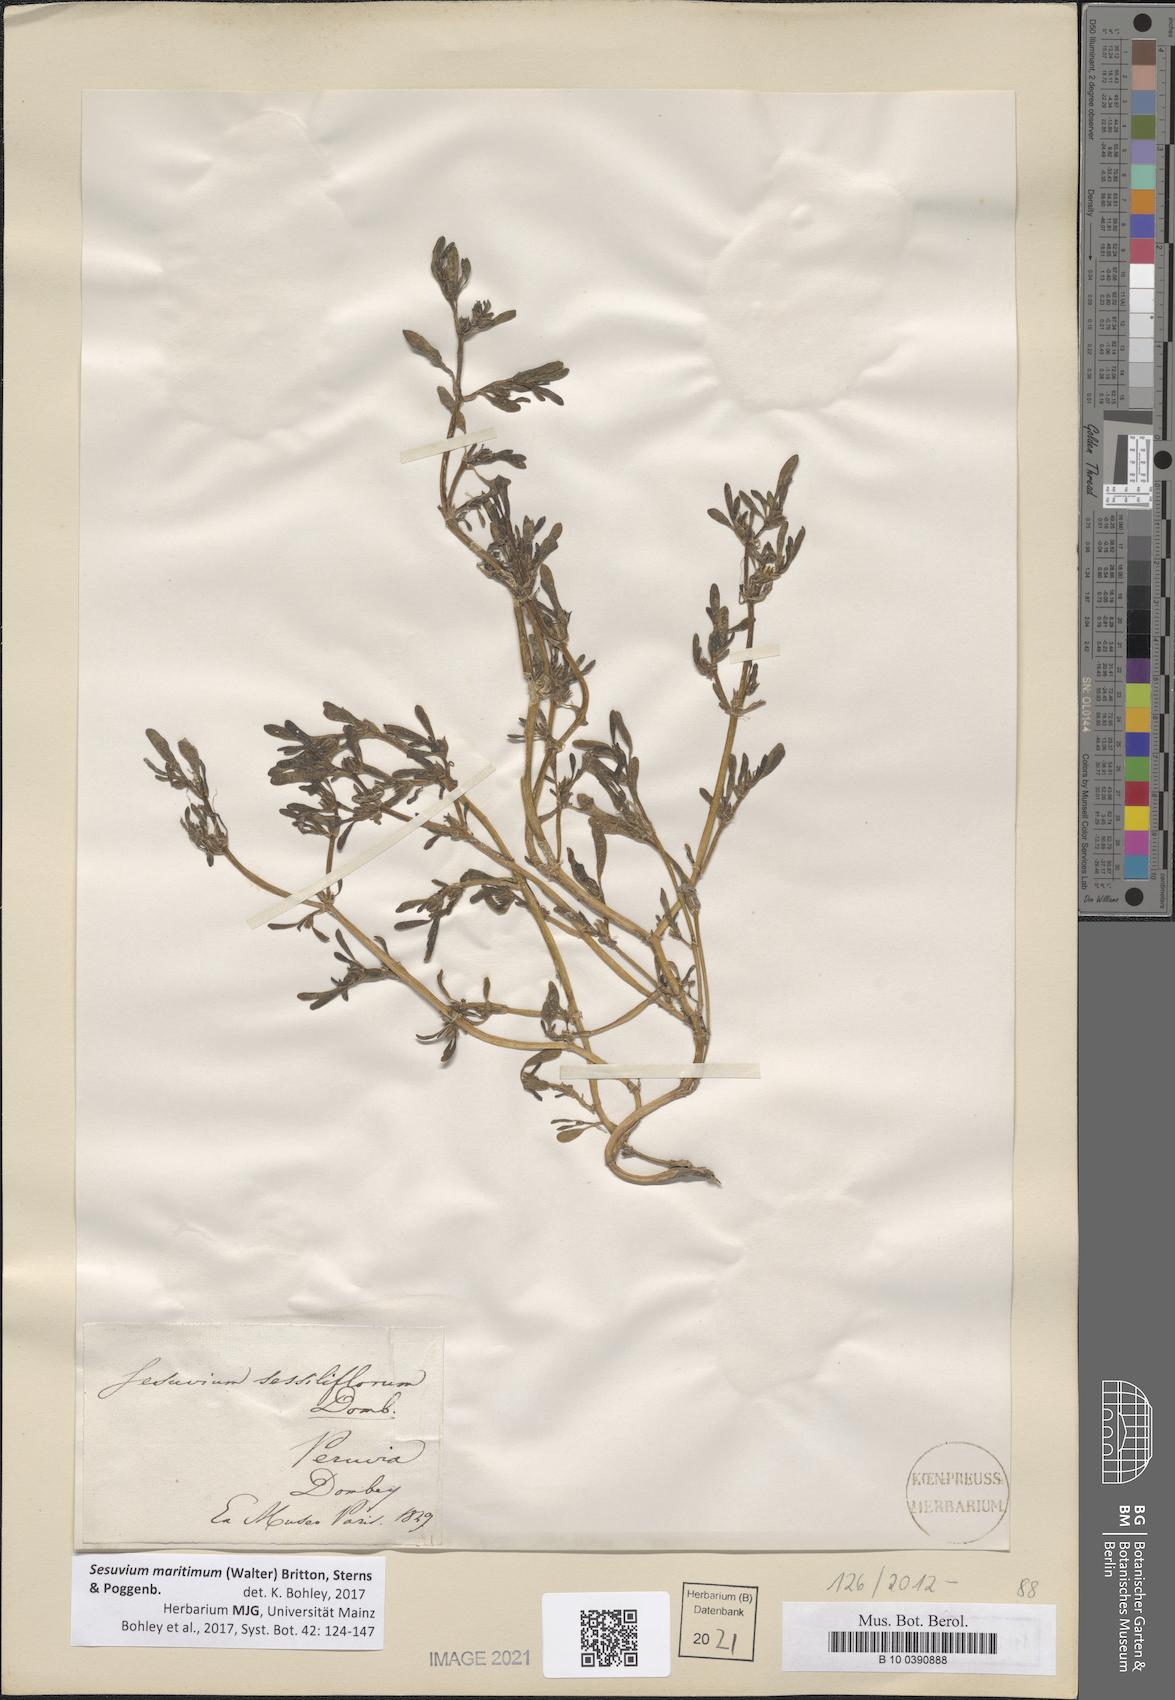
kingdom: Plantae
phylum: Tracheophyta
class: Magnoliopsida
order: Caryophyllales
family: Aizoaceae
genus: Sesuvium
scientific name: Sesuvium maritimum
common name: Slender sea-purslane
